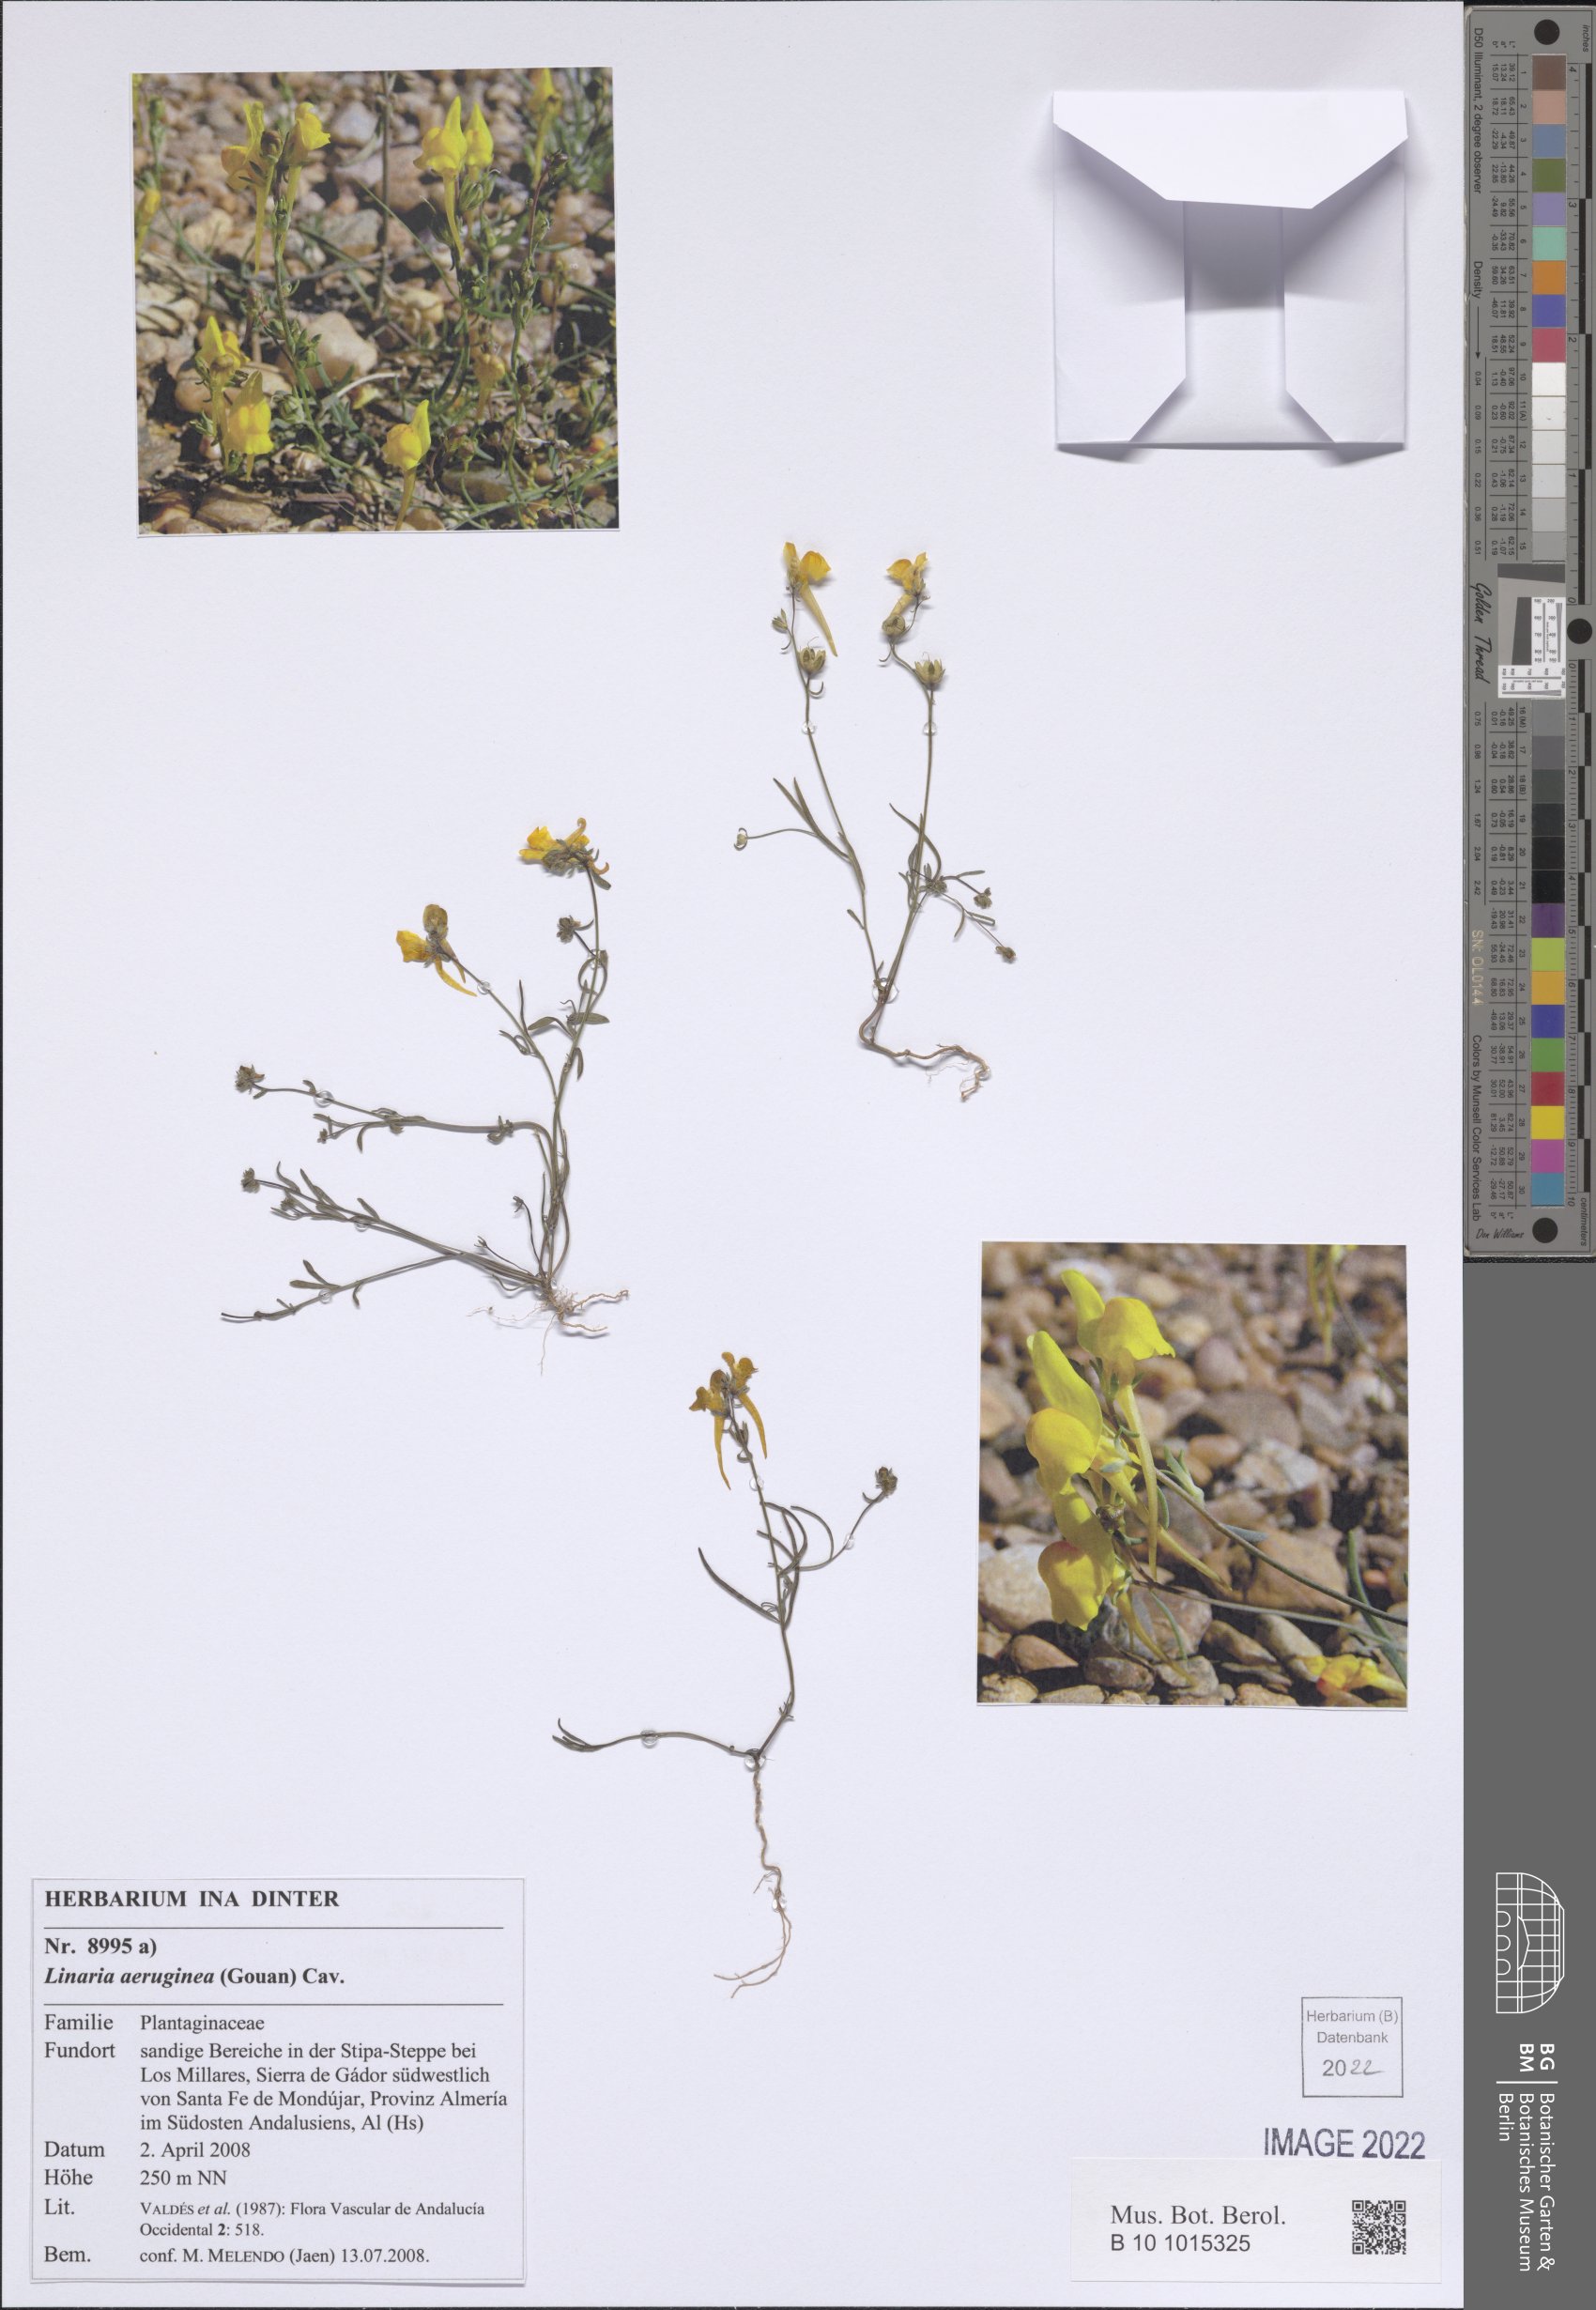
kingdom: Plantae
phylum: Tracheophyta
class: Magnoliopsida
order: Lamiales
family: Plantaginaceae
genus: Linaria
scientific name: Linaria aeruginea
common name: Roadside toadflax
